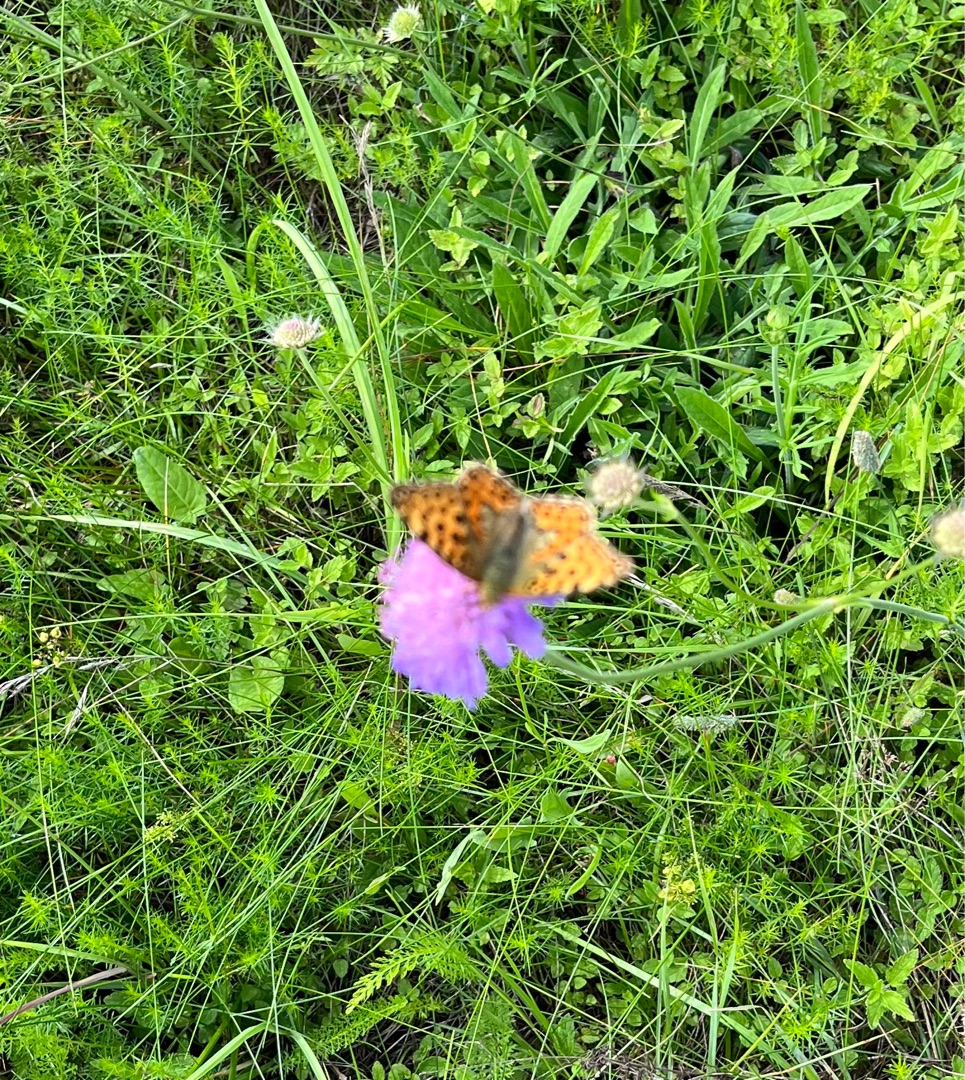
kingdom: Animalia
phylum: Arthropoda
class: Insecta
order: Lepidoptera
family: Nymphalidae
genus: Issoria
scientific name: Issoria lathonia
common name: Storplettet perlemorsommerfugl
